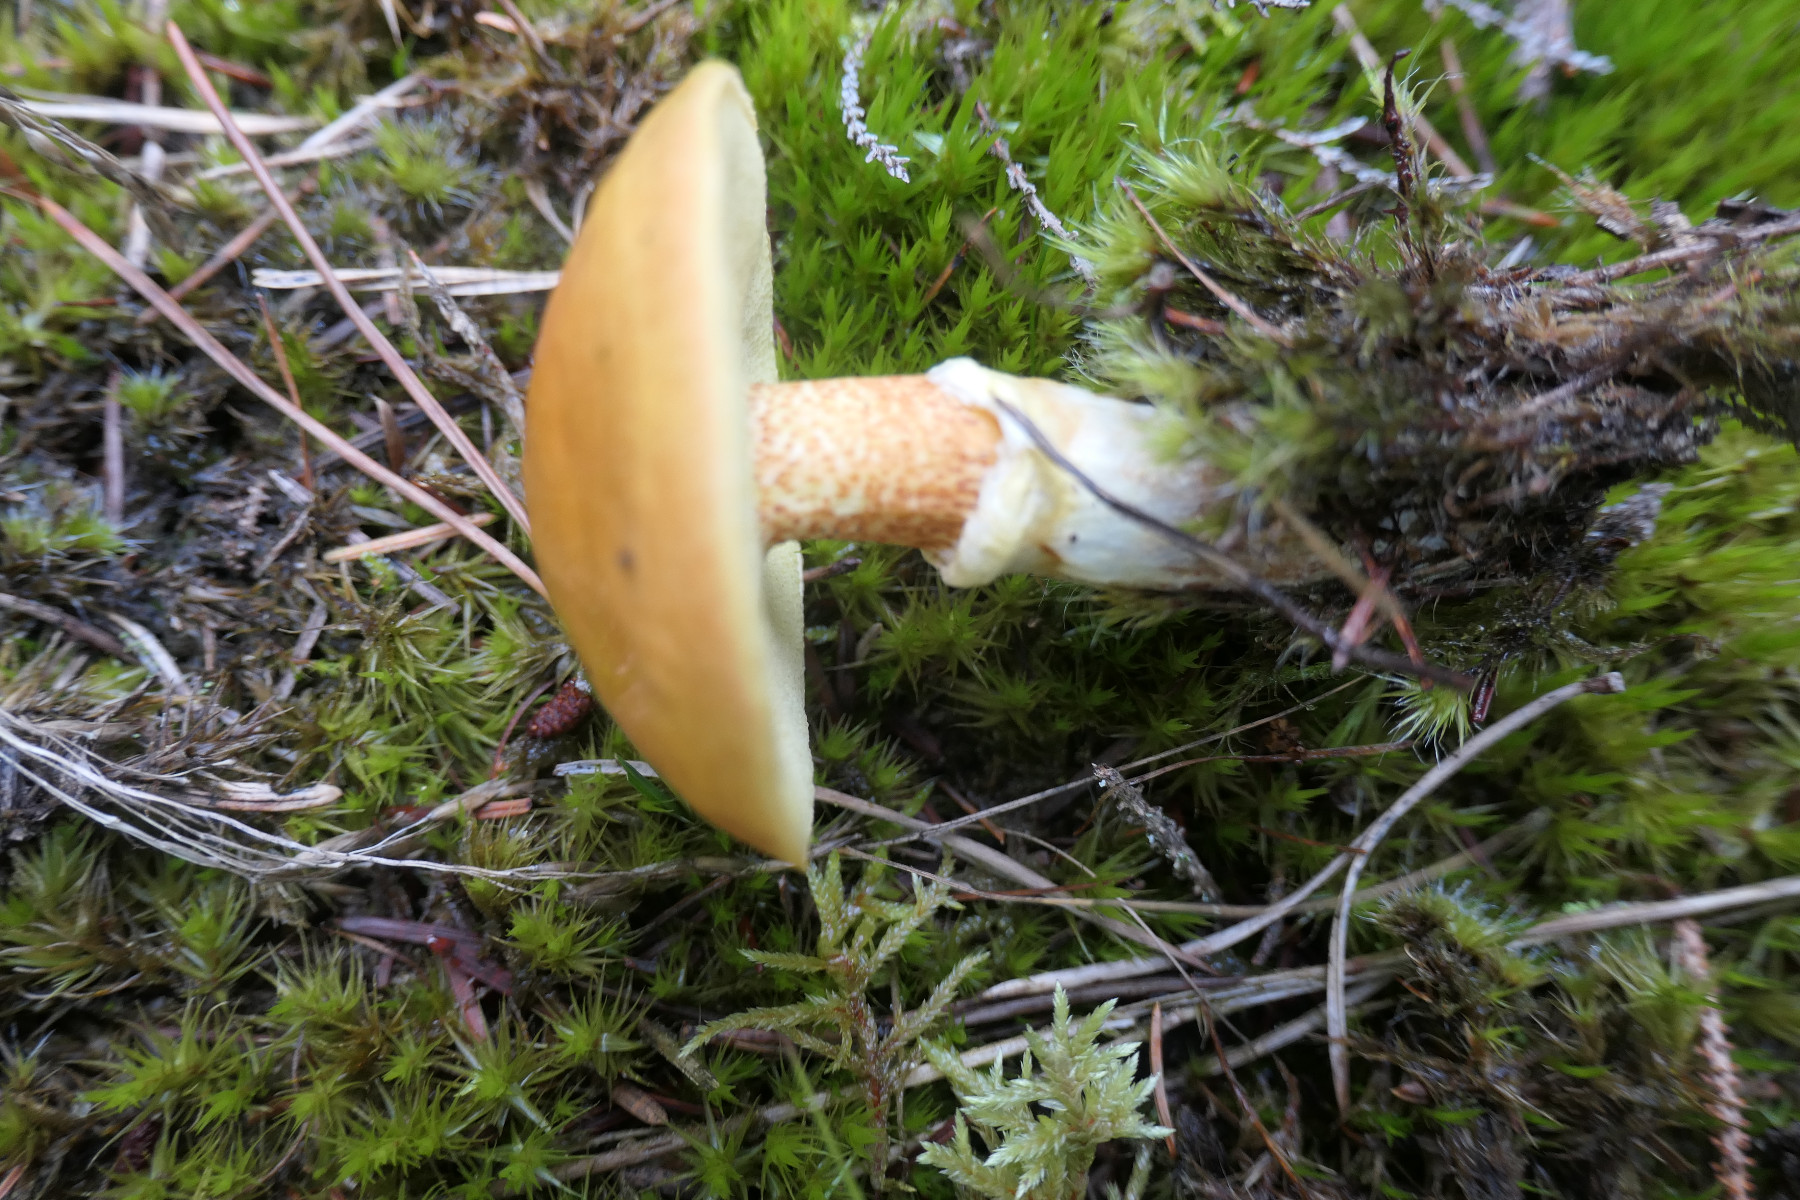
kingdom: Fungi
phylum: Basidiomycota
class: Agaricomycetes
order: Boletales
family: Suillaceae
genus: Suillus
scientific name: Suillus grevillei
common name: lærke-slimrørhat
